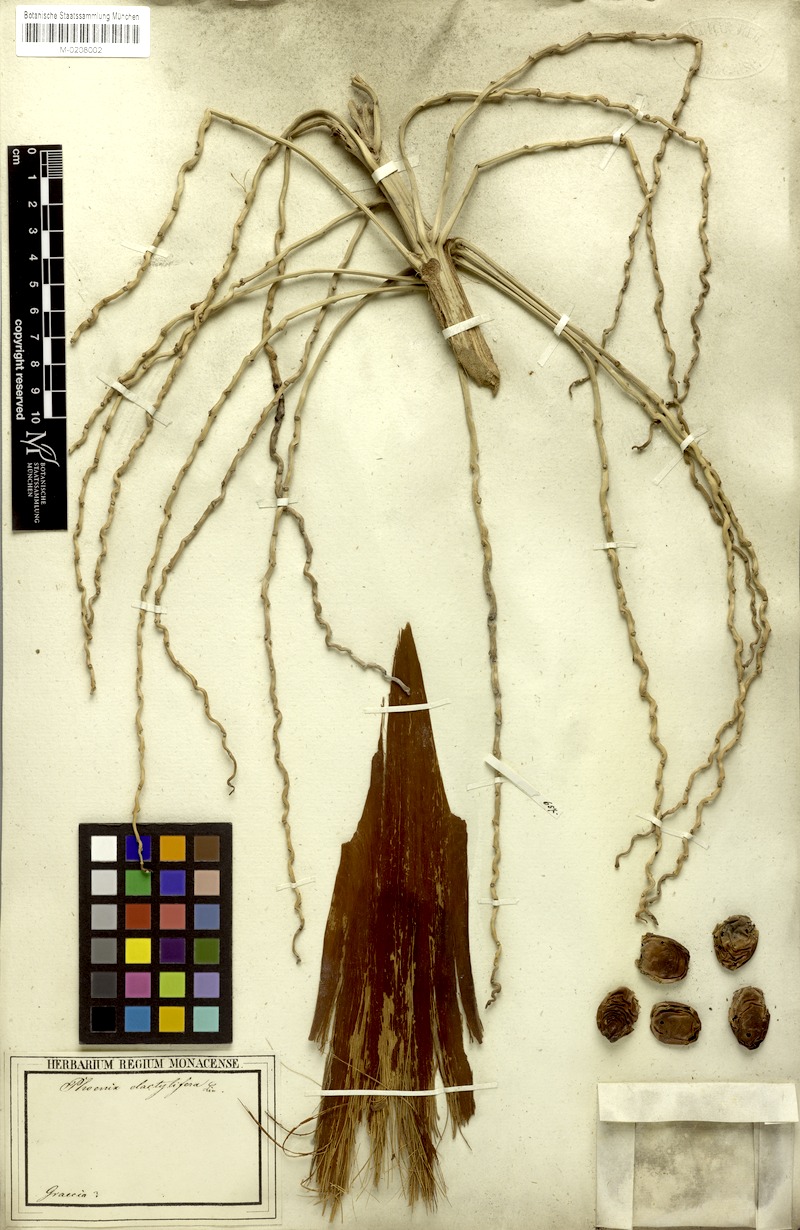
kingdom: Plantae
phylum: Tracheophyta
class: Liliopsida
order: Arecales
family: Arecaceae
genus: Phoenix
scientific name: Phoenix dactylifera
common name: Date palm
